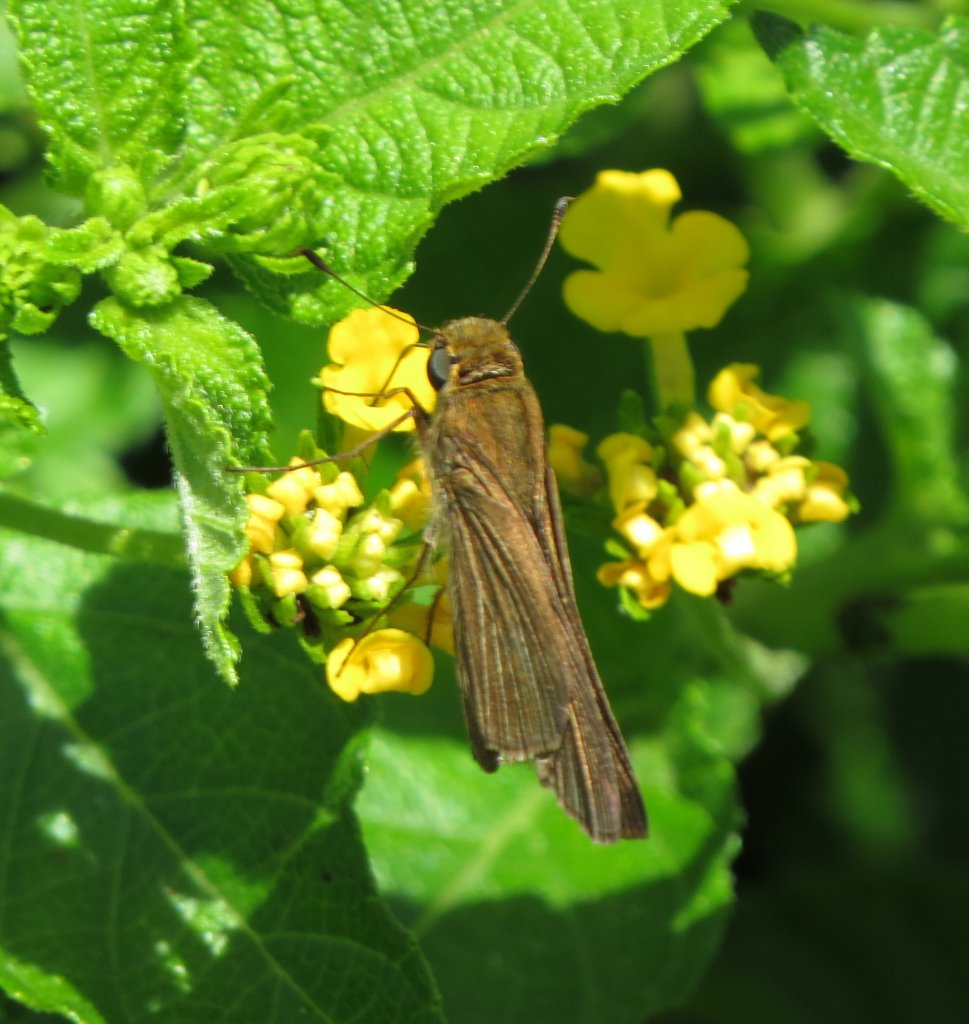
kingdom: Animalia
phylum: Arthropoda
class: Insecta
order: Lepidoptera
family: Hesperiidae
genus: Panoquina
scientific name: Panoquina ocola
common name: Ocola Skipper
